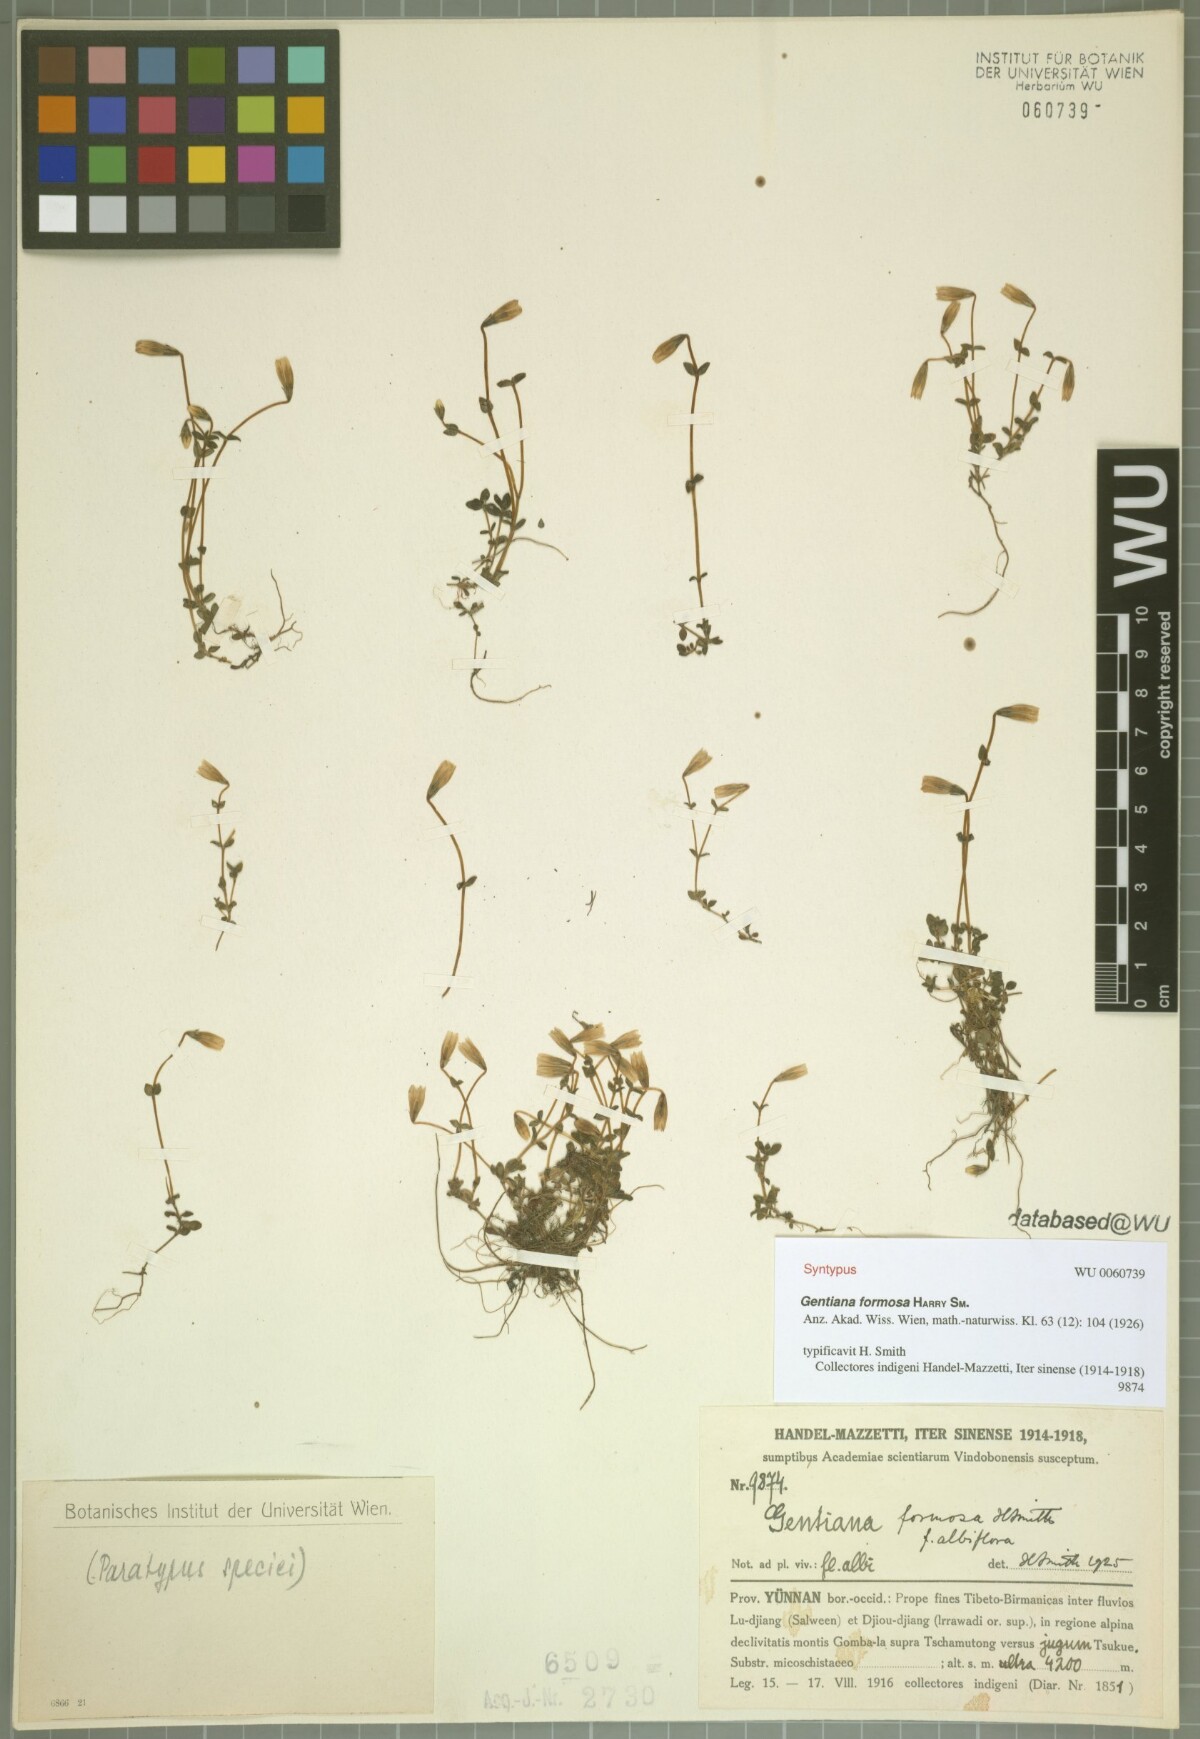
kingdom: Plantae
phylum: Tracheophyta
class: Magnoliopsida
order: Gentianales
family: Gentianaceae
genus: Gentiana
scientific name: Gentiana formosa
